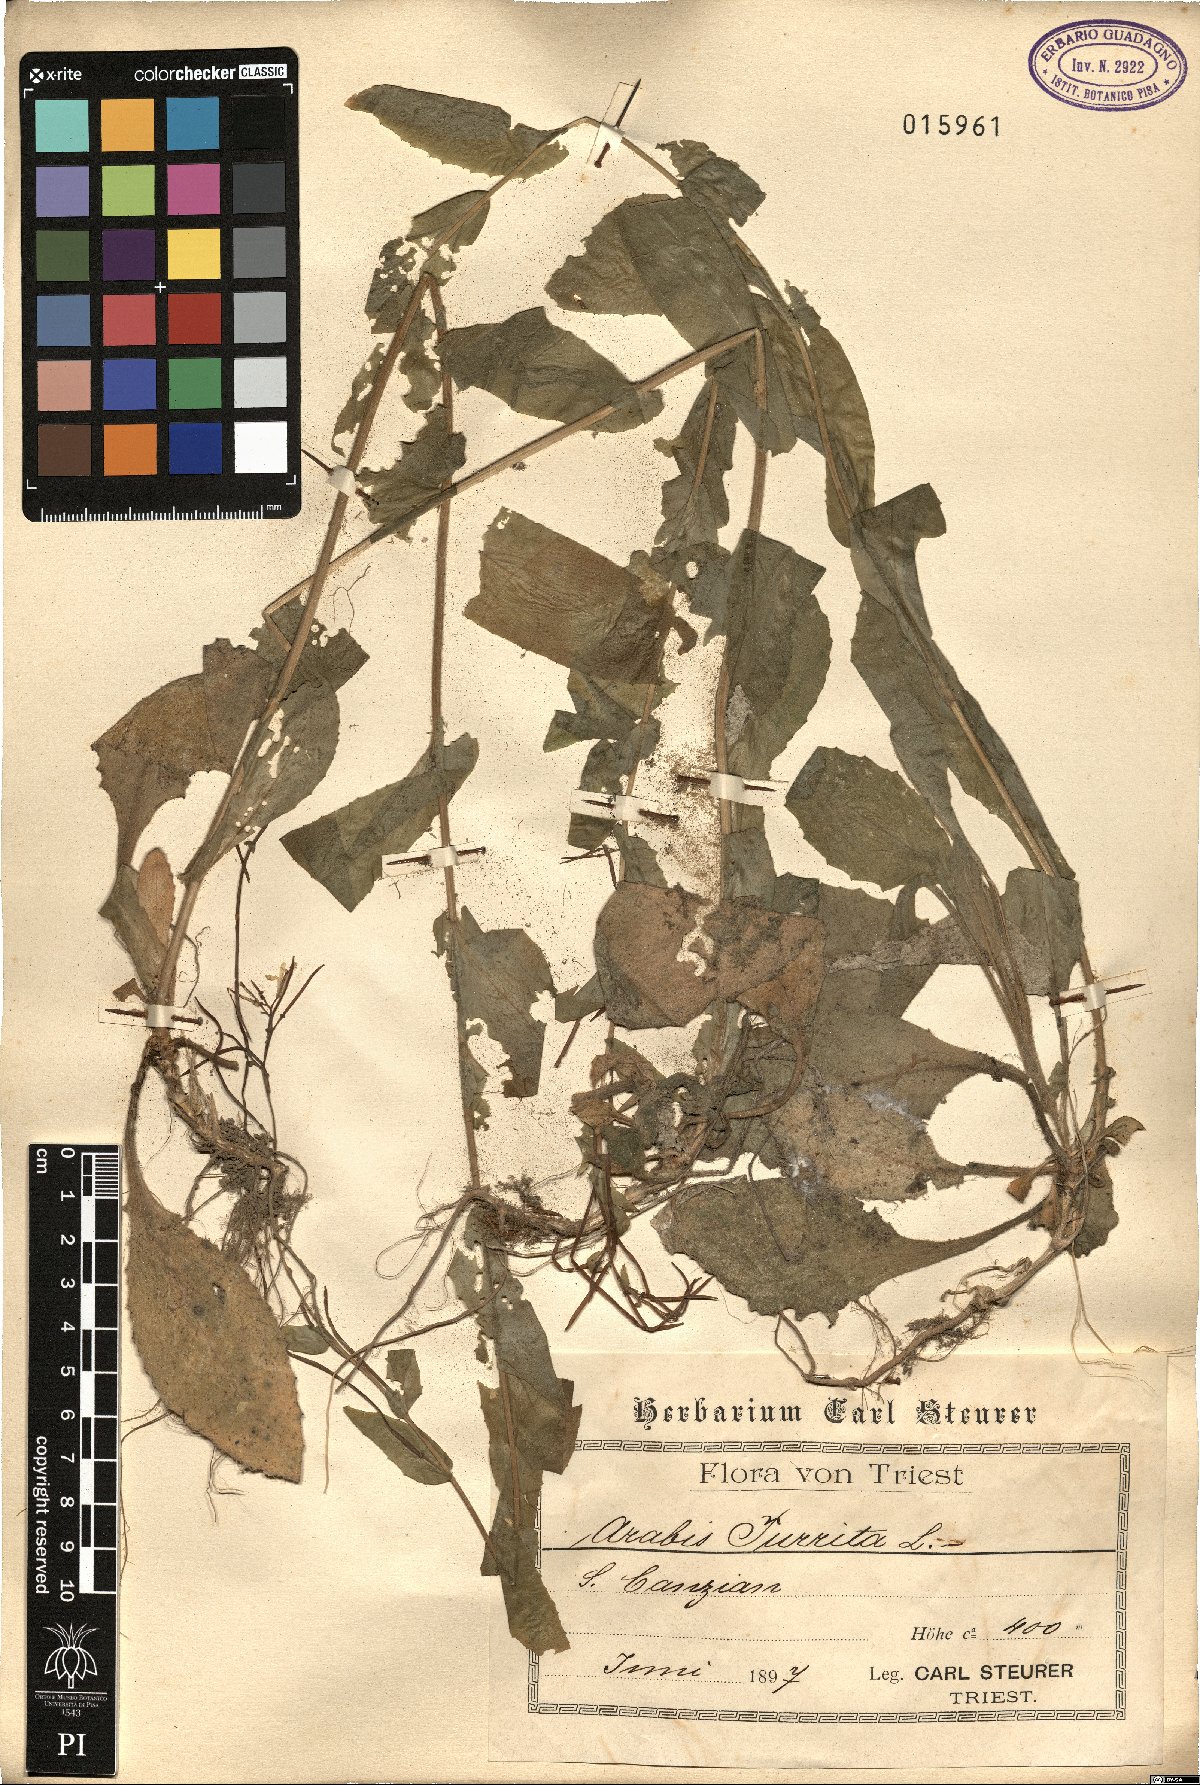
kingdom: Plantae
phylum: Tracheophyta
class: Magnoliopsida
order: Brassicales
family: Brassicaceae
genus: Pseudoturritis
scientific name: Pseudoturritis turrita
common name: Tower cress
